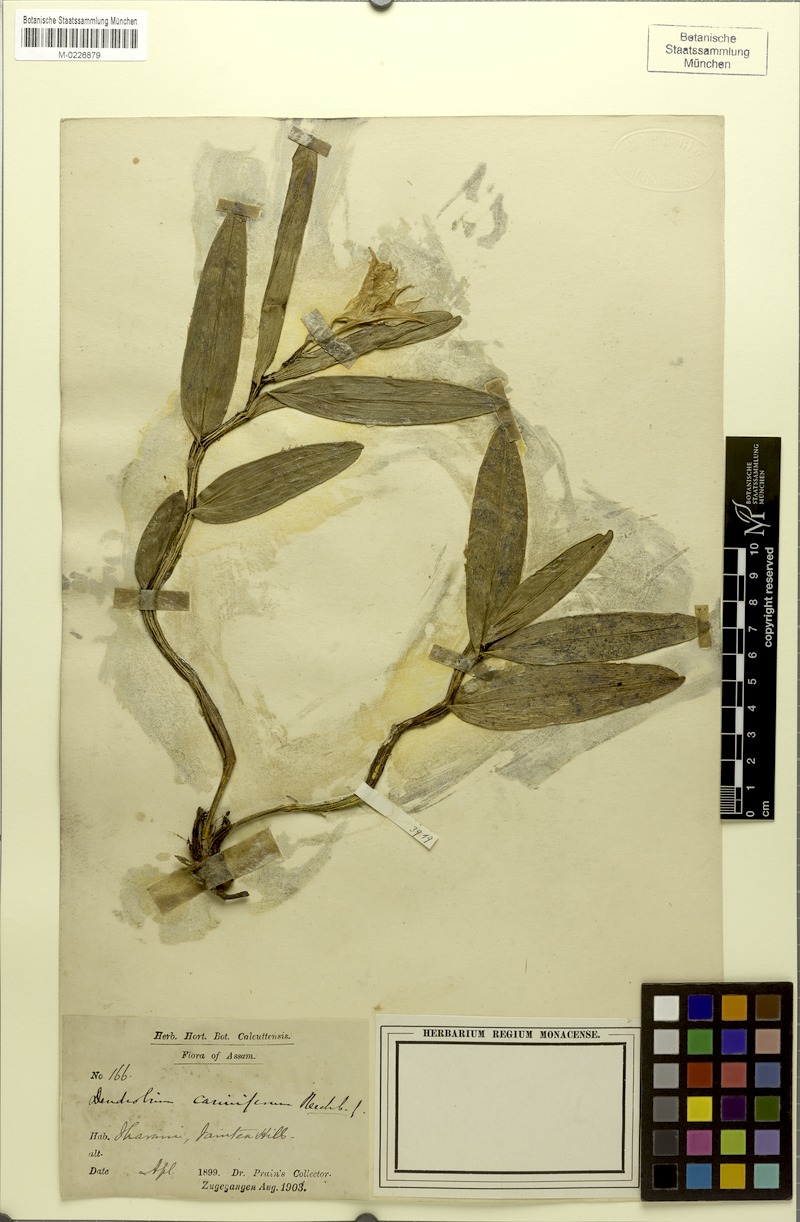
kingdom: Plantae
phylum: Tracheophyta
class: Liliopsida
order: Asparagales
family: Orchidaceae
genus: Dendrobium
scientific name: Dendrobium cariniferum
